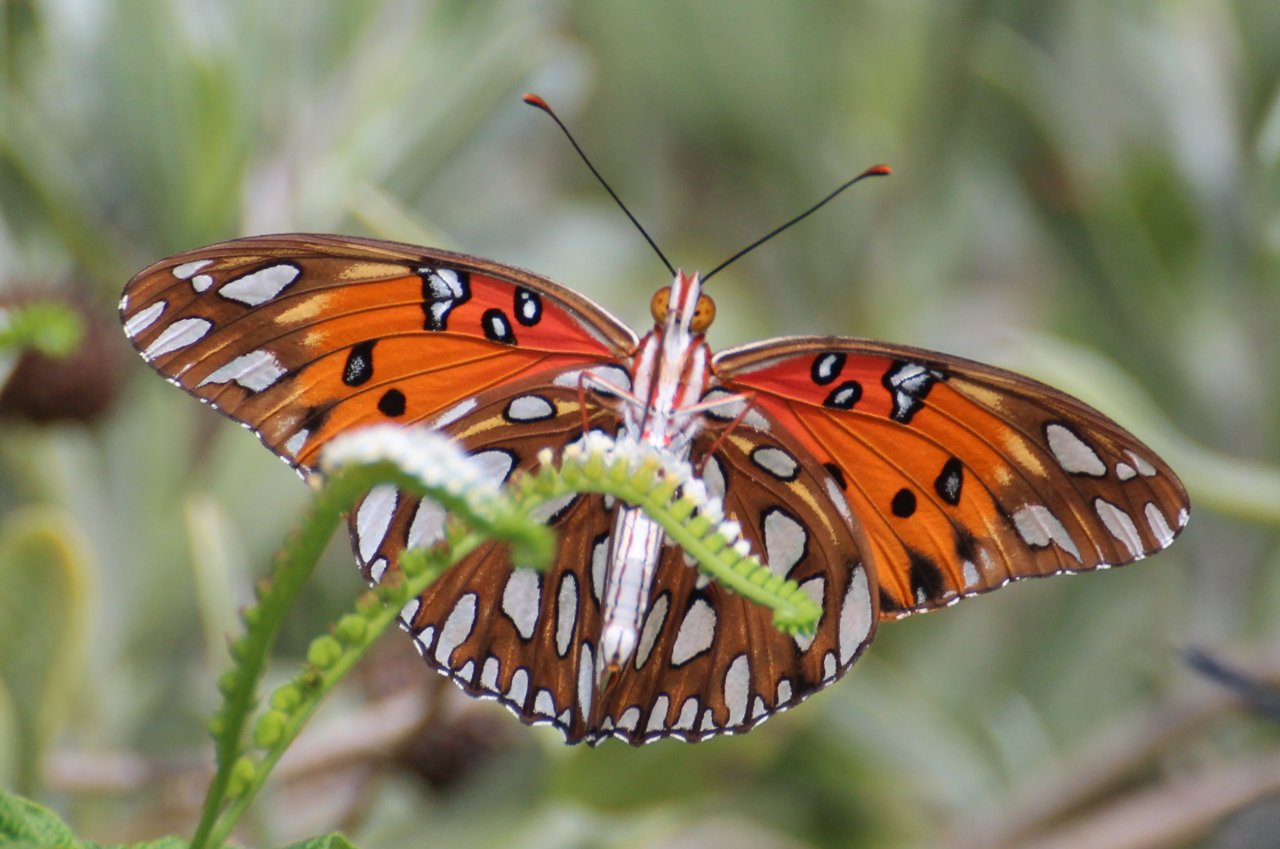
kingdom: Animalia
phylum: Arthropoda
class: Insecta
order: Lepidoptera
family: Nymphalidae
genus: Dione
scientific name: Dione vanillae
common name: Gulf Fritillary
